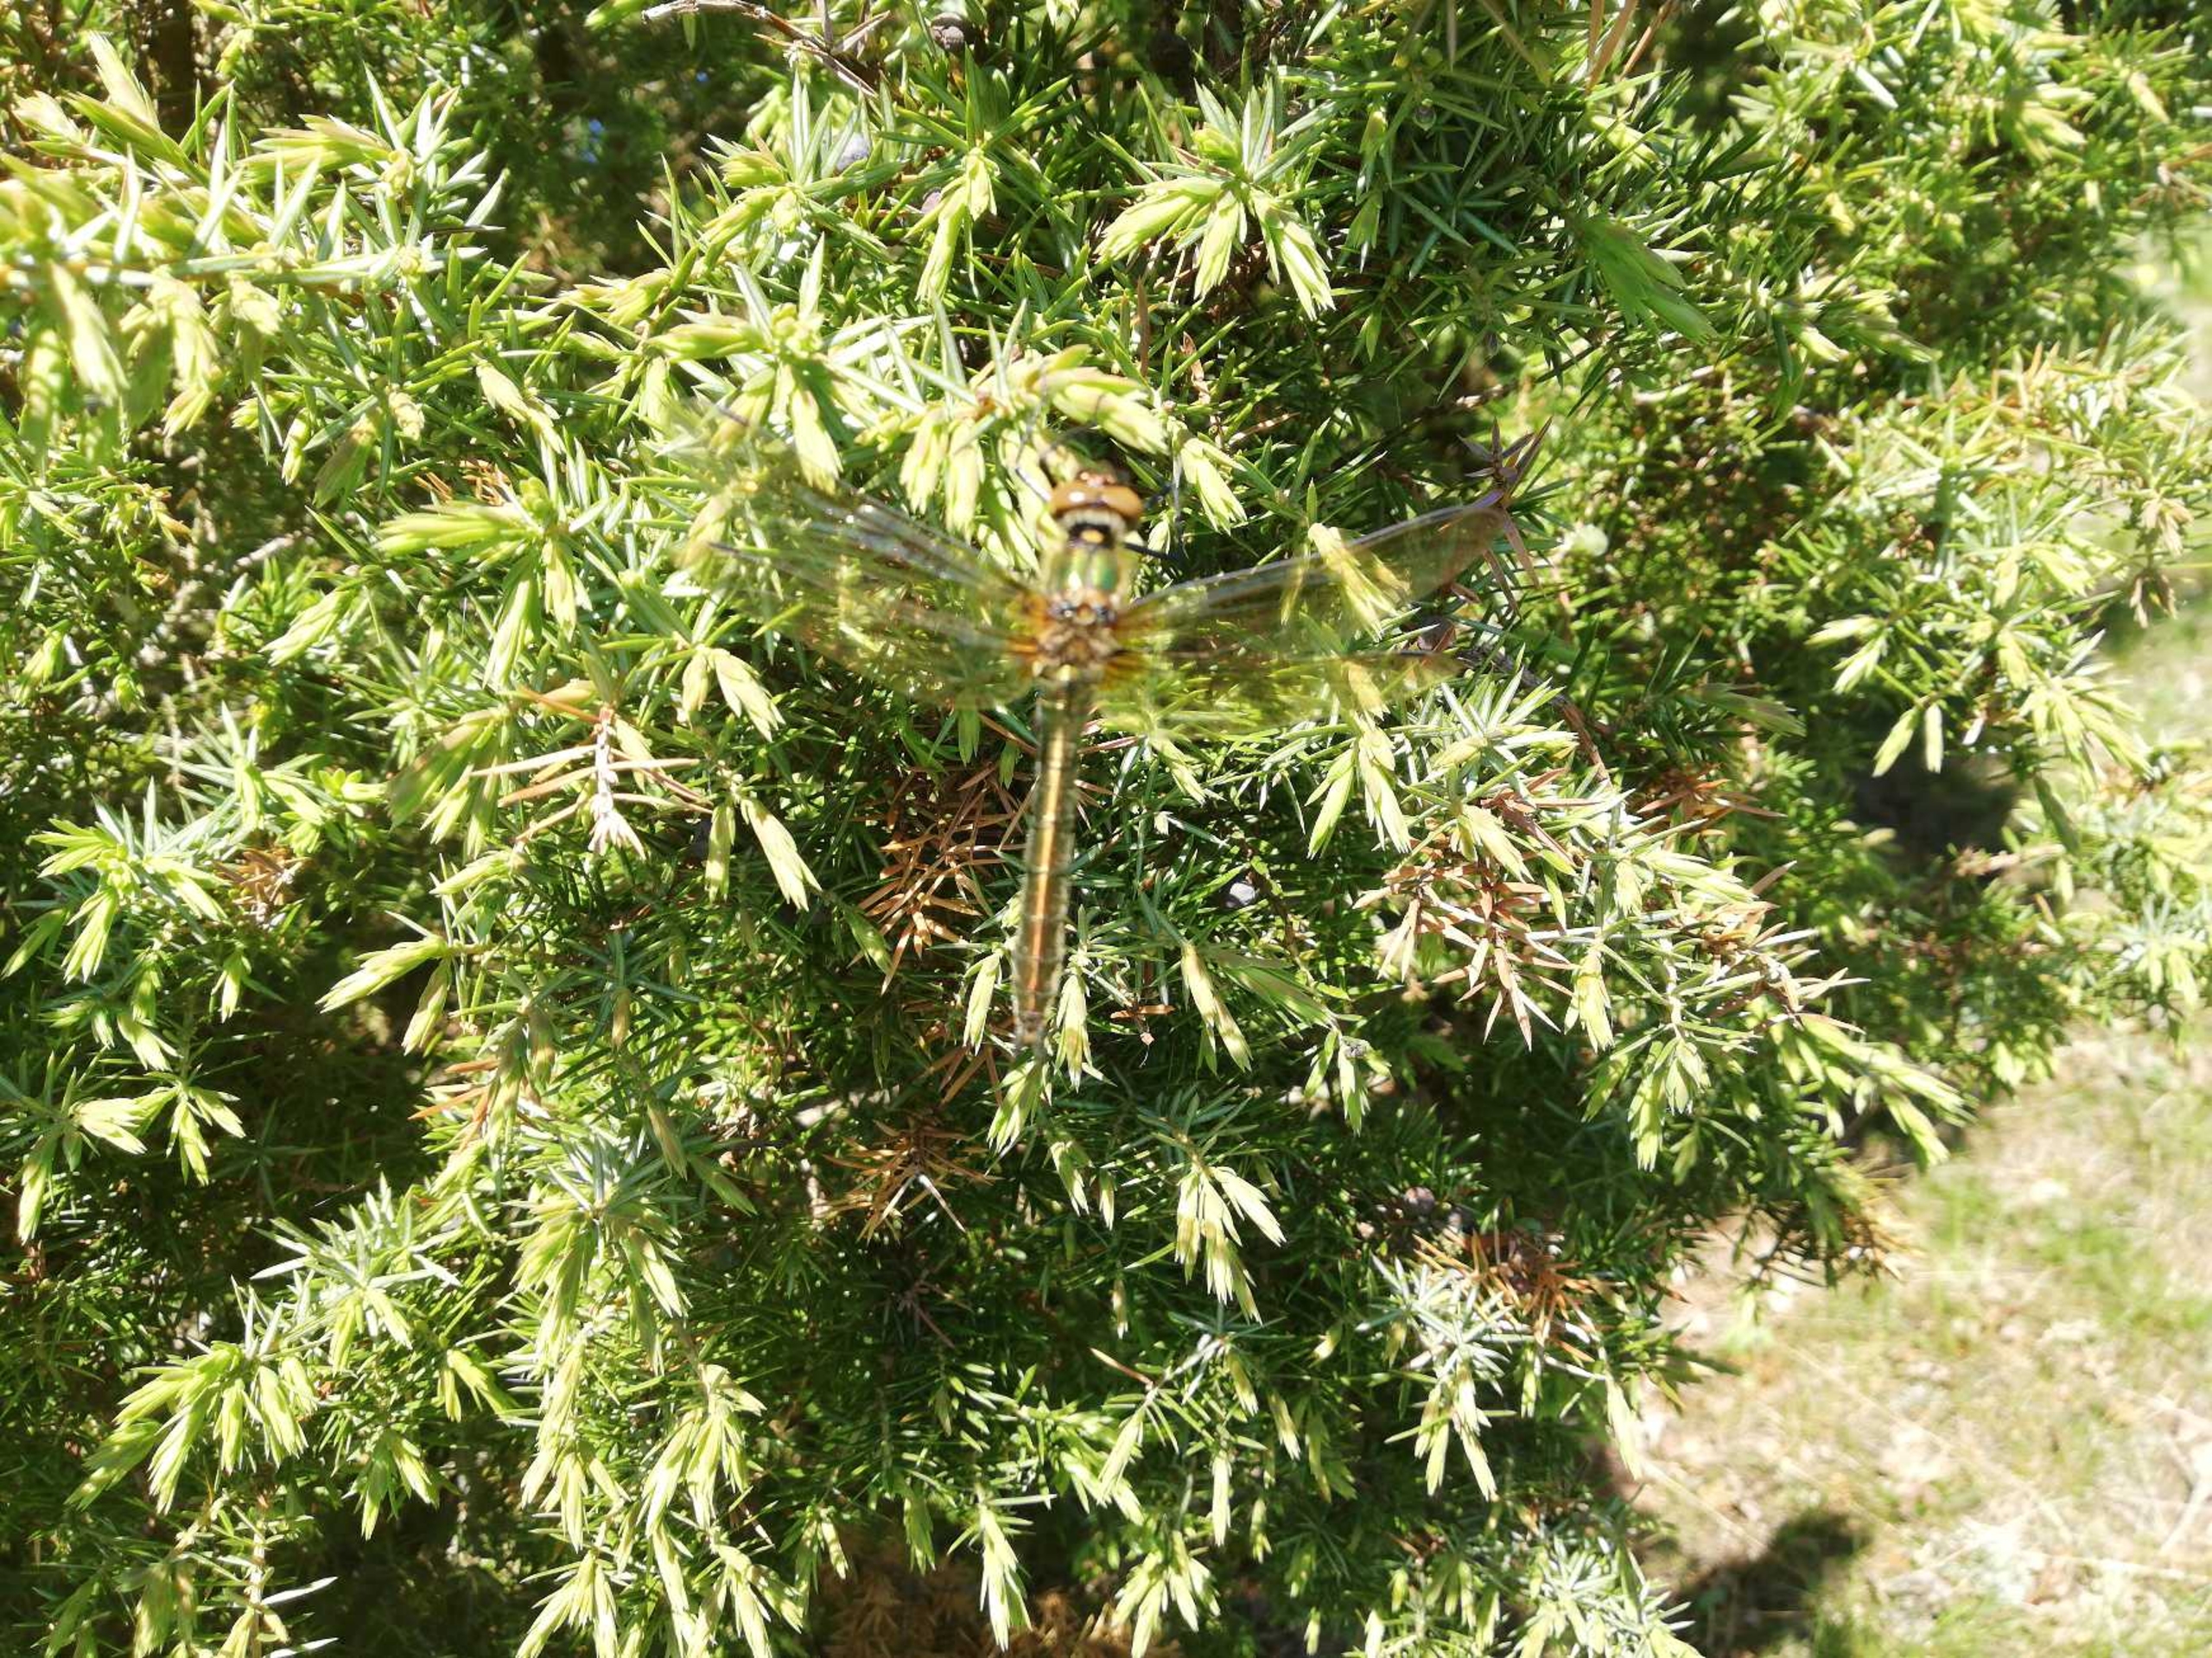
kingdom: Animalia
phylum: Arthropoda
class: Insecta
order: Odonata
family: Corduliidae
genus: Cordulia
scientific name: Cordulia aenea
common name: Grøn smaragdlibel
